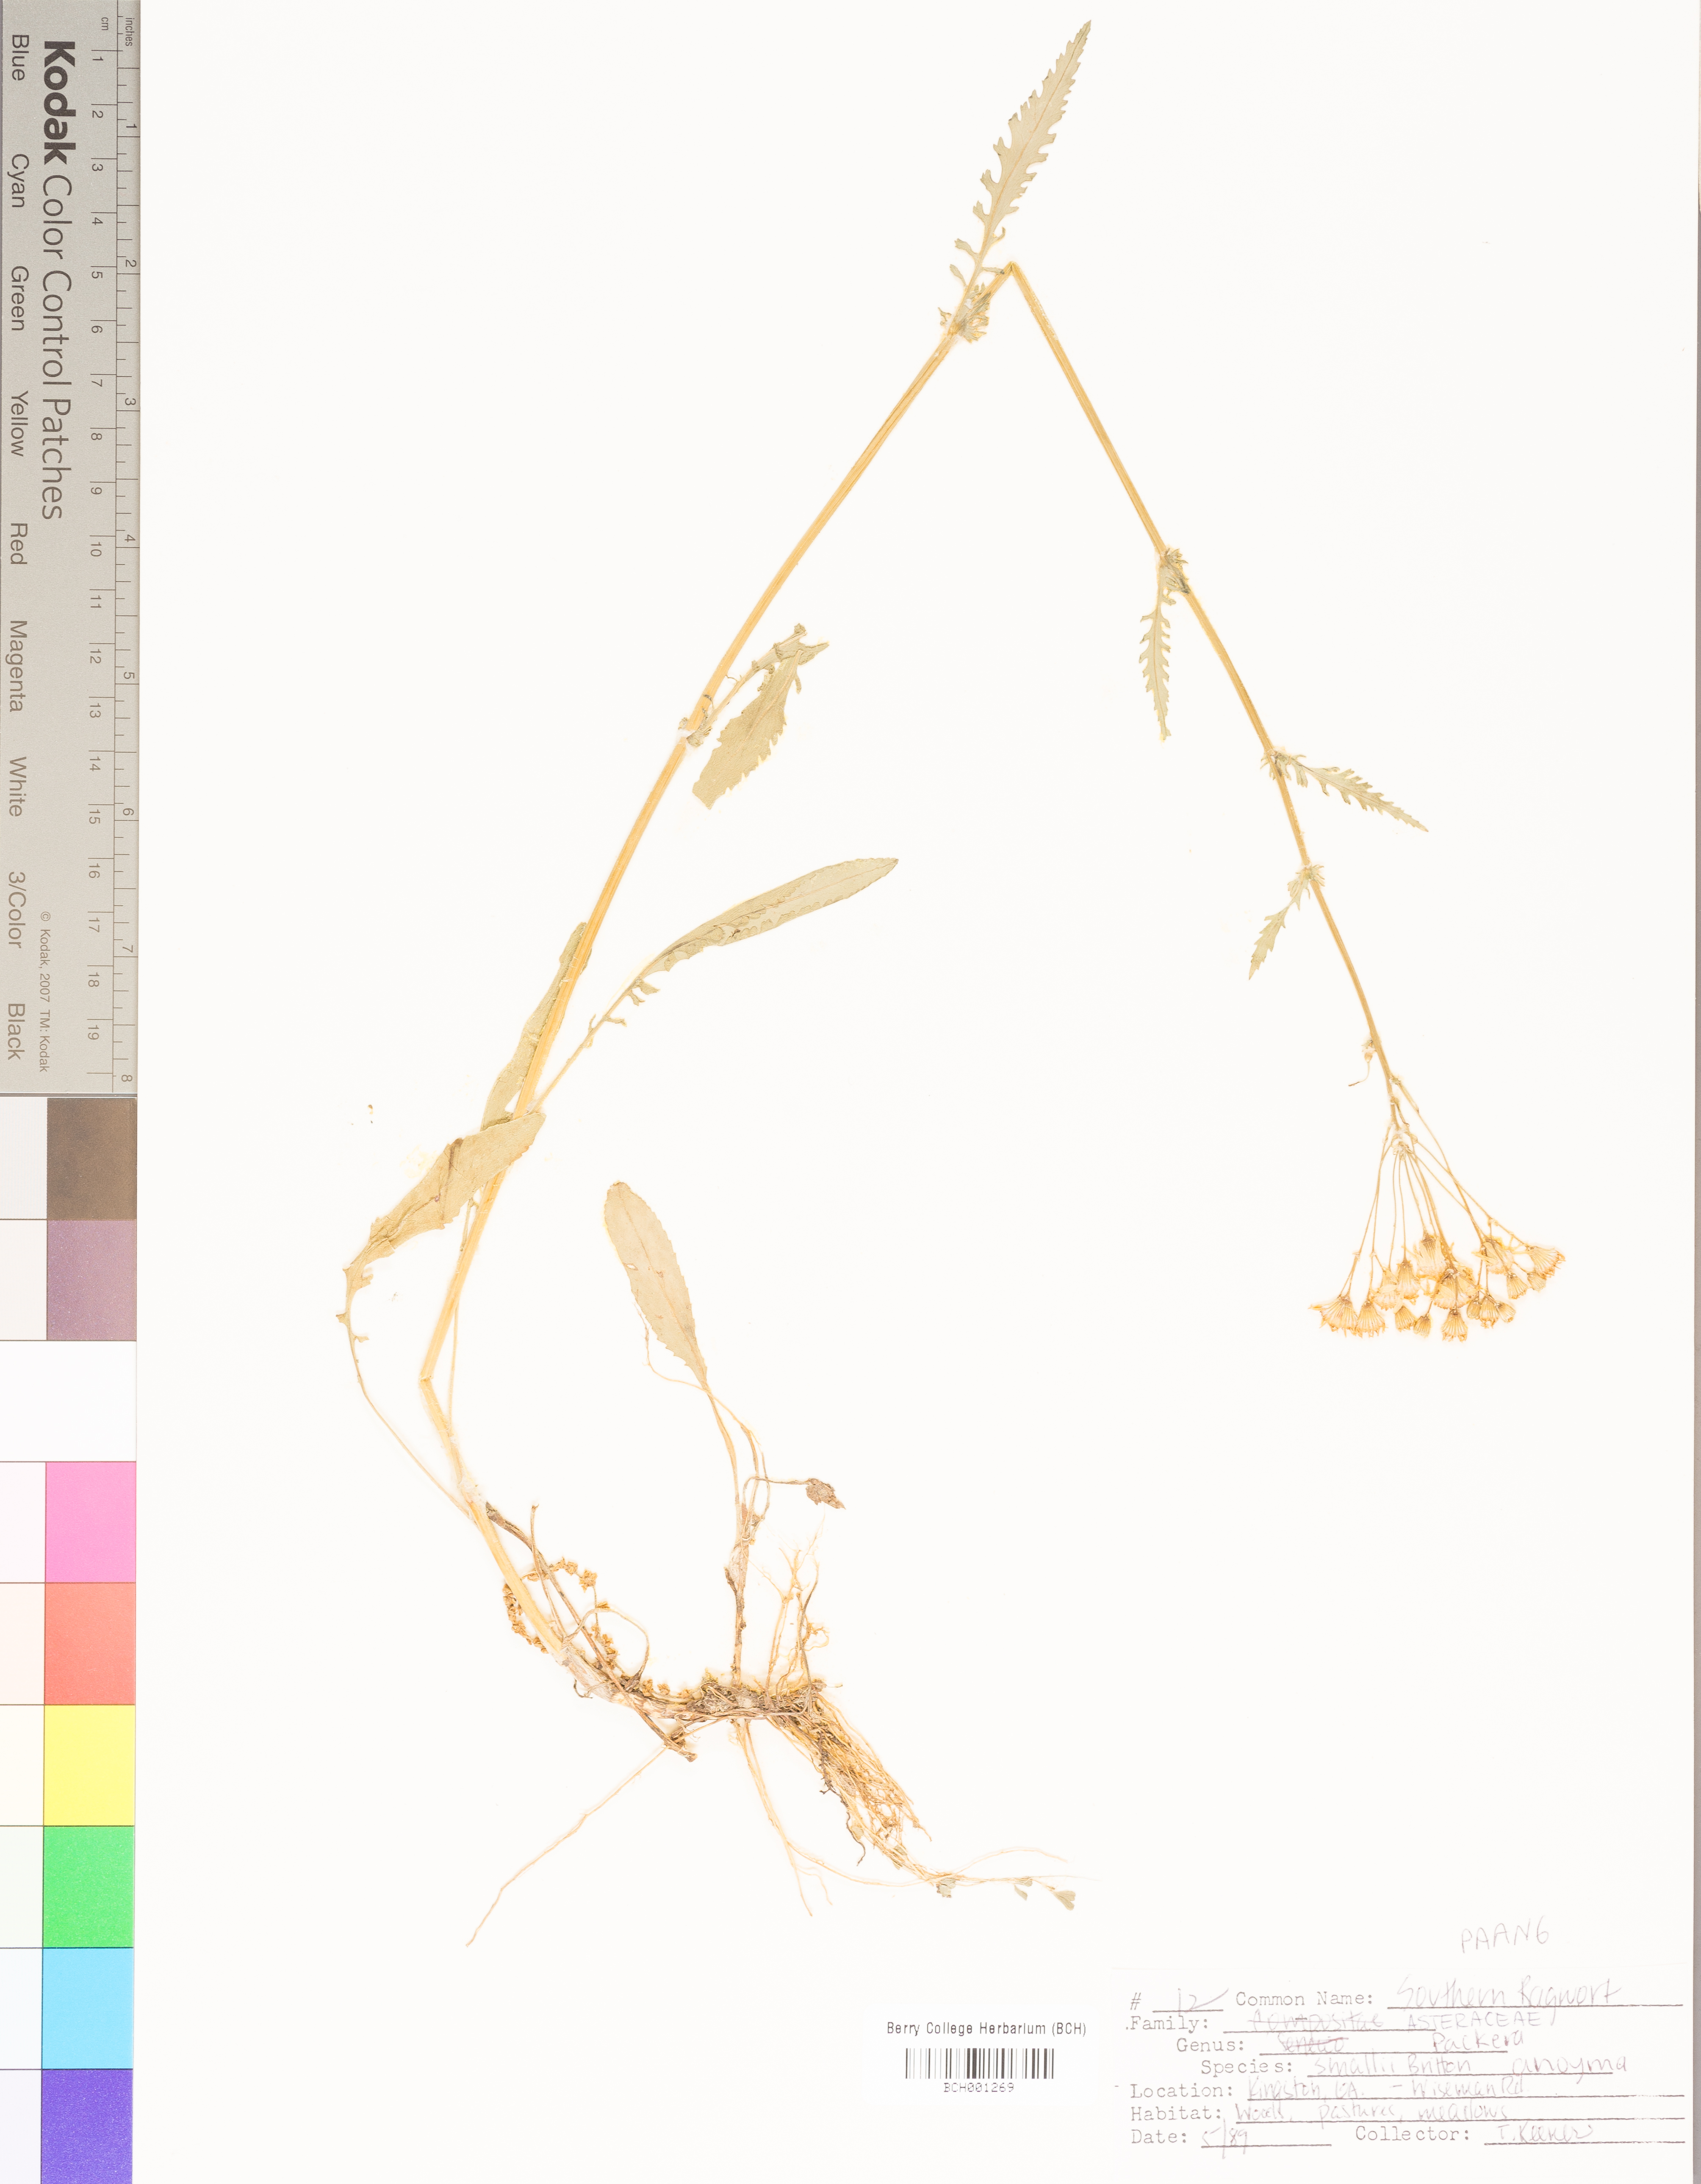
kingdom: Plantae
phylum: Tracheophyta
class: Magnoliopsida
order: Asterales
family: Asteraceae
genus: Packera
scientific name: Packera anonyma
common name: Small ragwort
